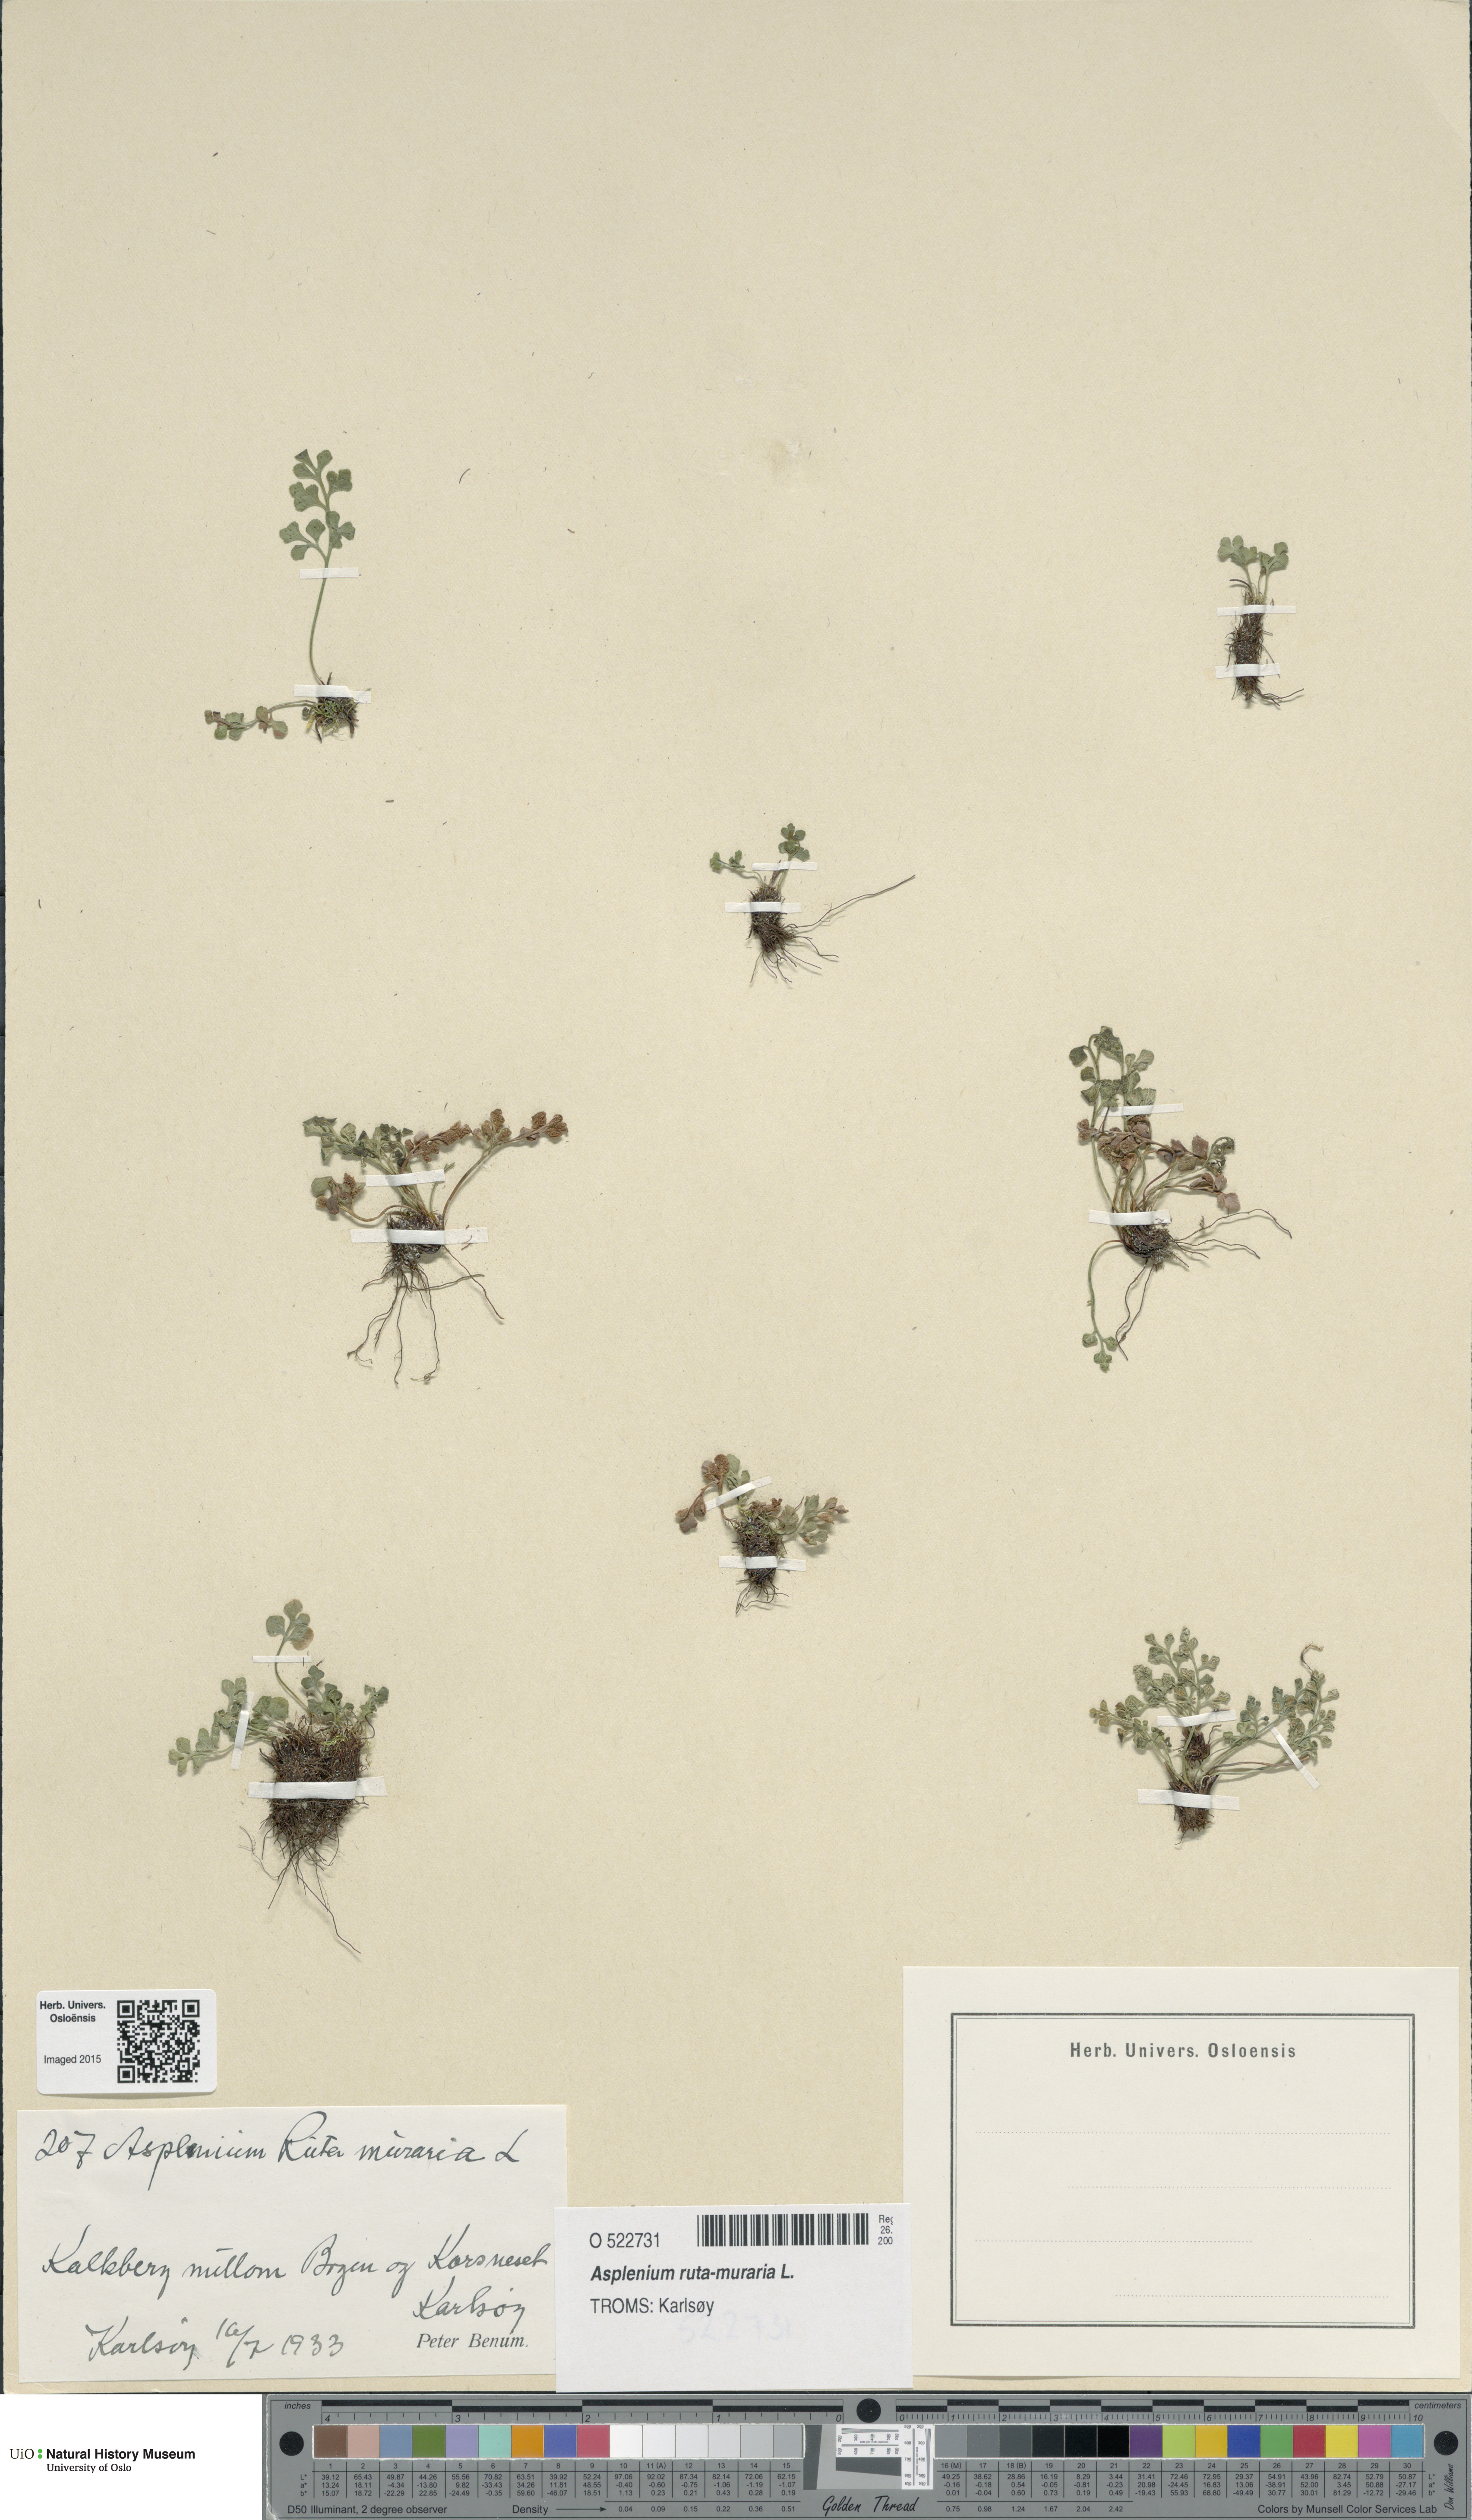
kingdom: Plantae
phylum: Tracheophyta
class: Polypodiopsida
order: Polypodiales
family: Aspleniaceae
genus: Asplenium
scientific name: Asplenium ruta-muraria
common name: Wall-rue
